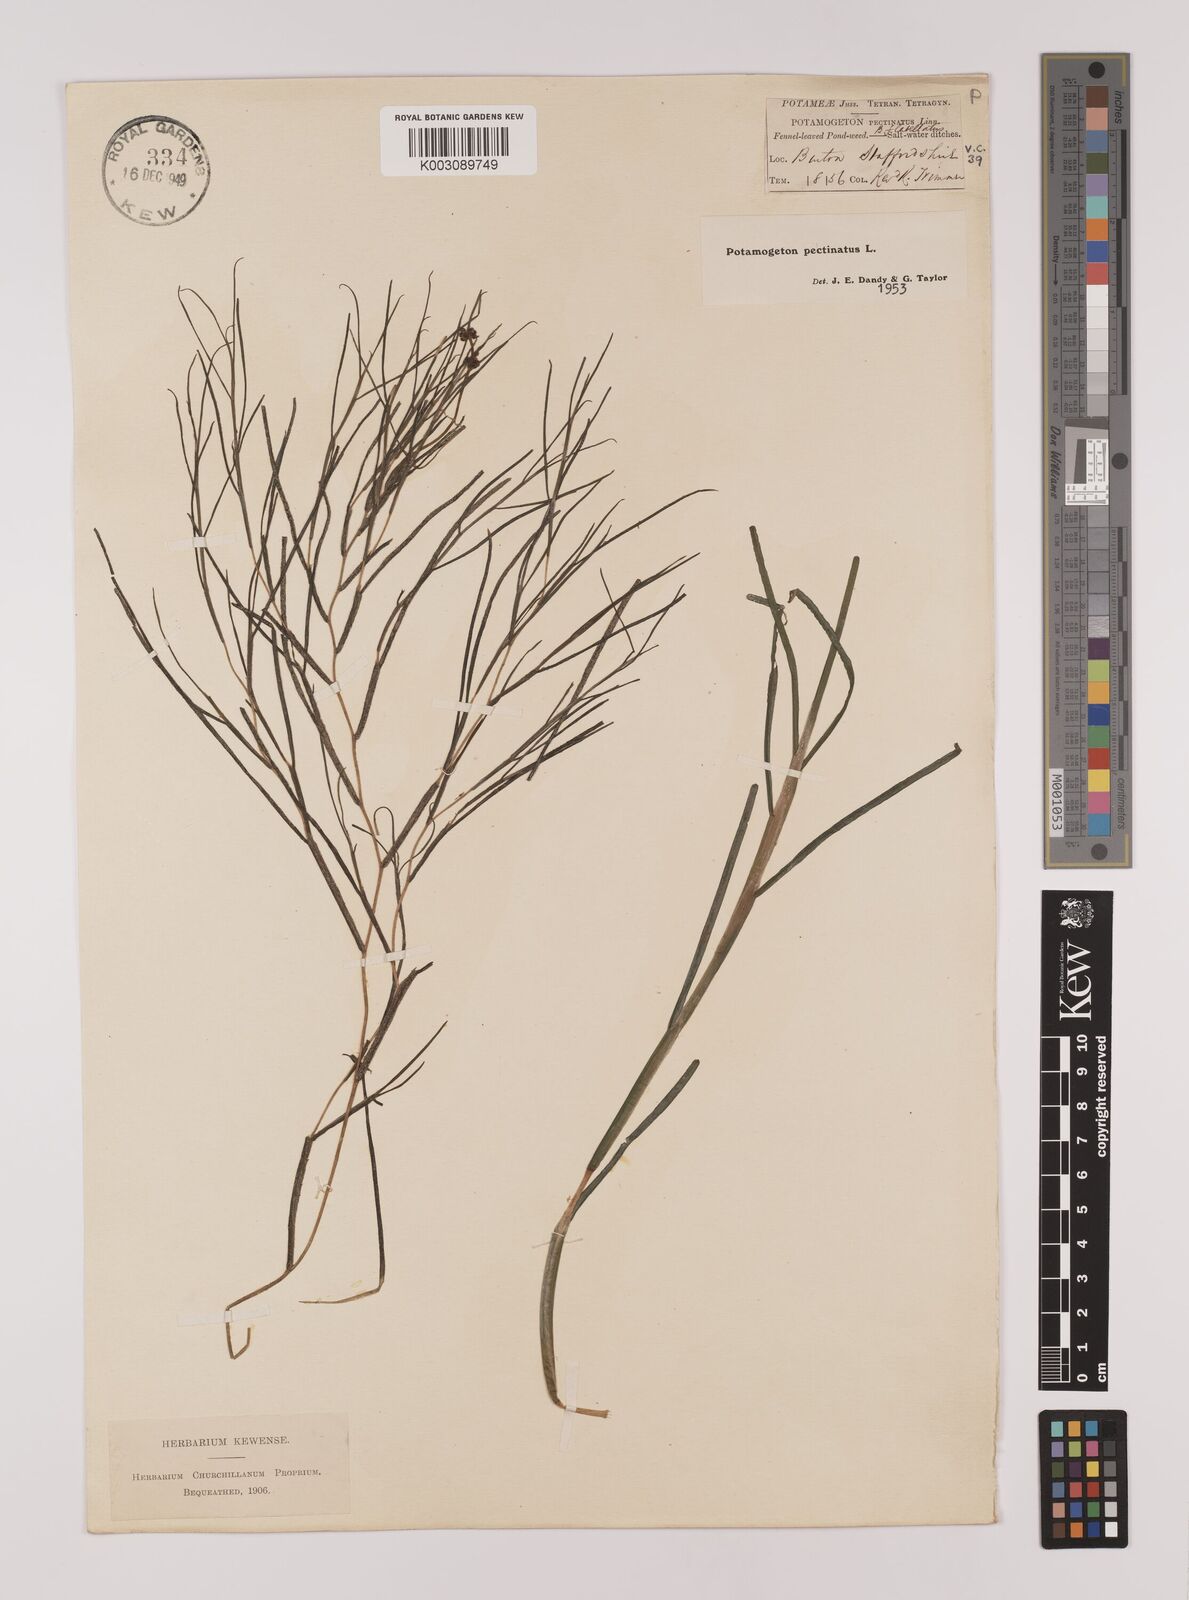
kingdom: Plantae
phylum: Tracheophyta
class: Liliopsida
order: Alismatales
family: Potamogetonaceae
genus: Stuckenia
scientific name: Stuckenia pectinata
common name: Sago pondweed
